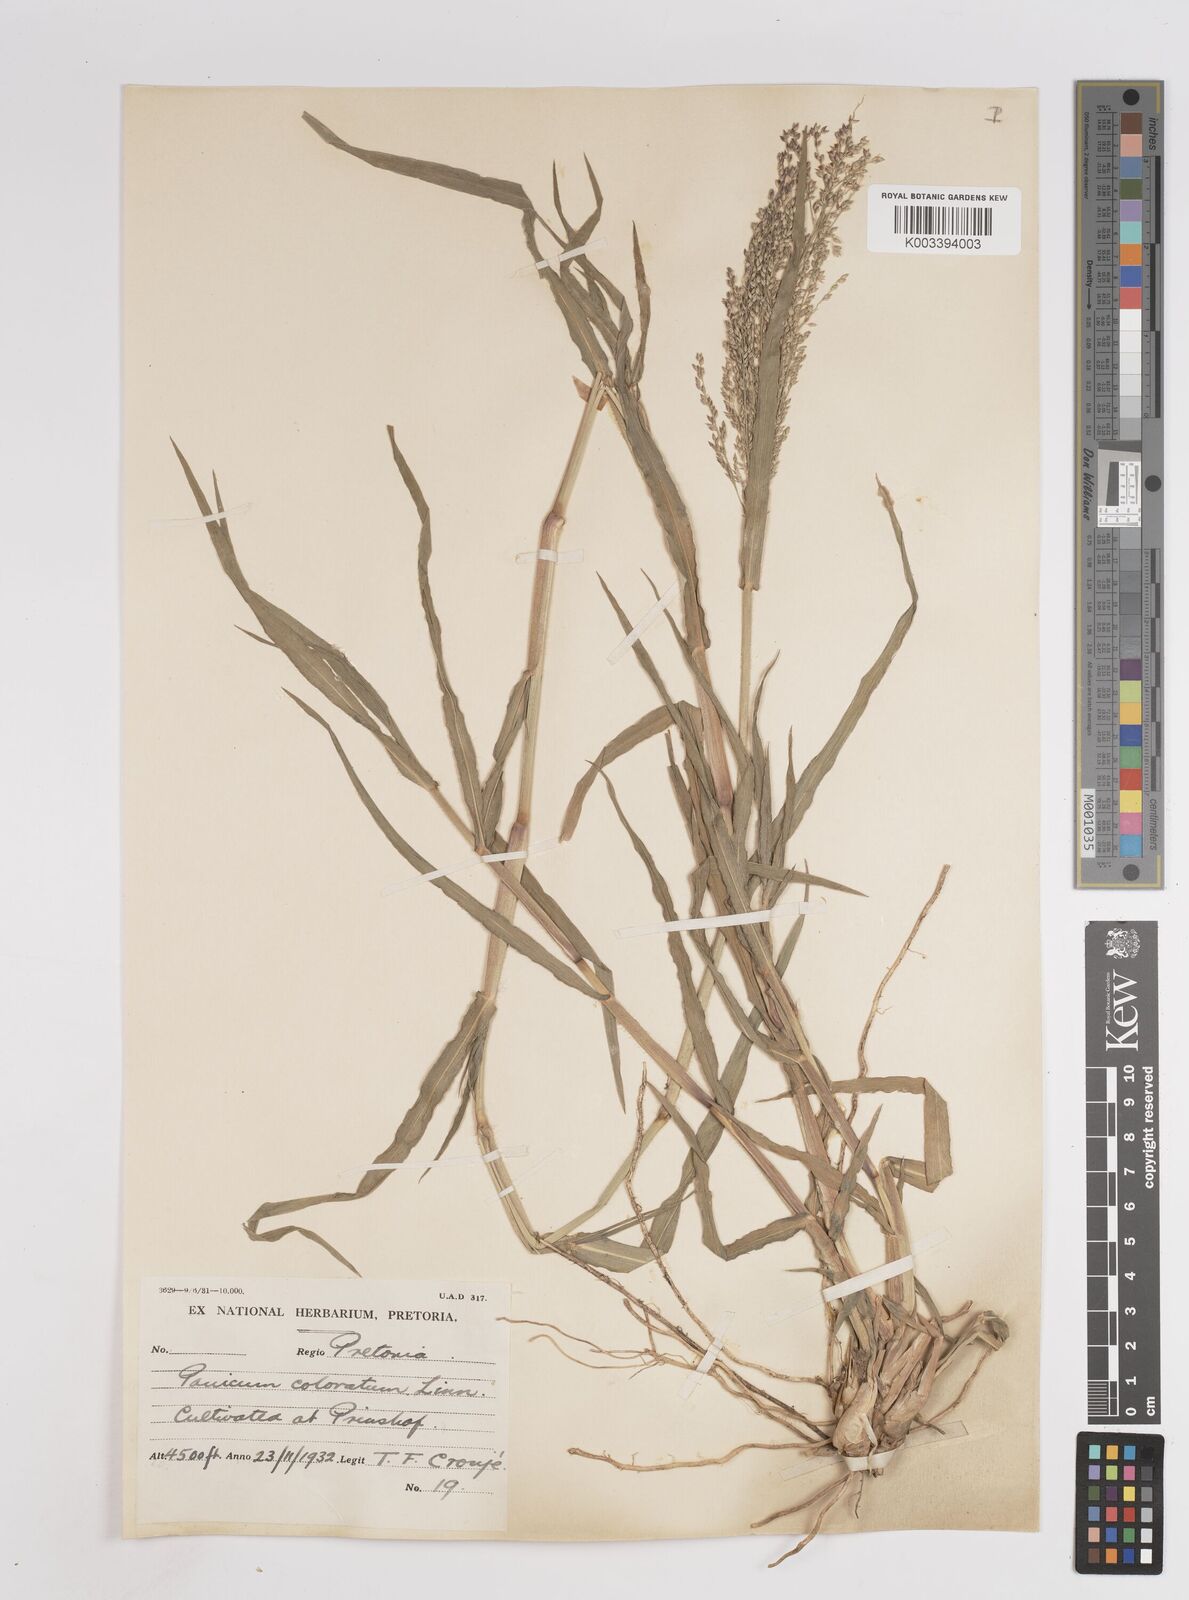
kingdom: Plantae
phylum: Tracheophyta
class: Liliopsida
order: Poales
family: Poaceae
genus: Panicum
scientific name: Panicum coloratum
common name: Kleingrass
